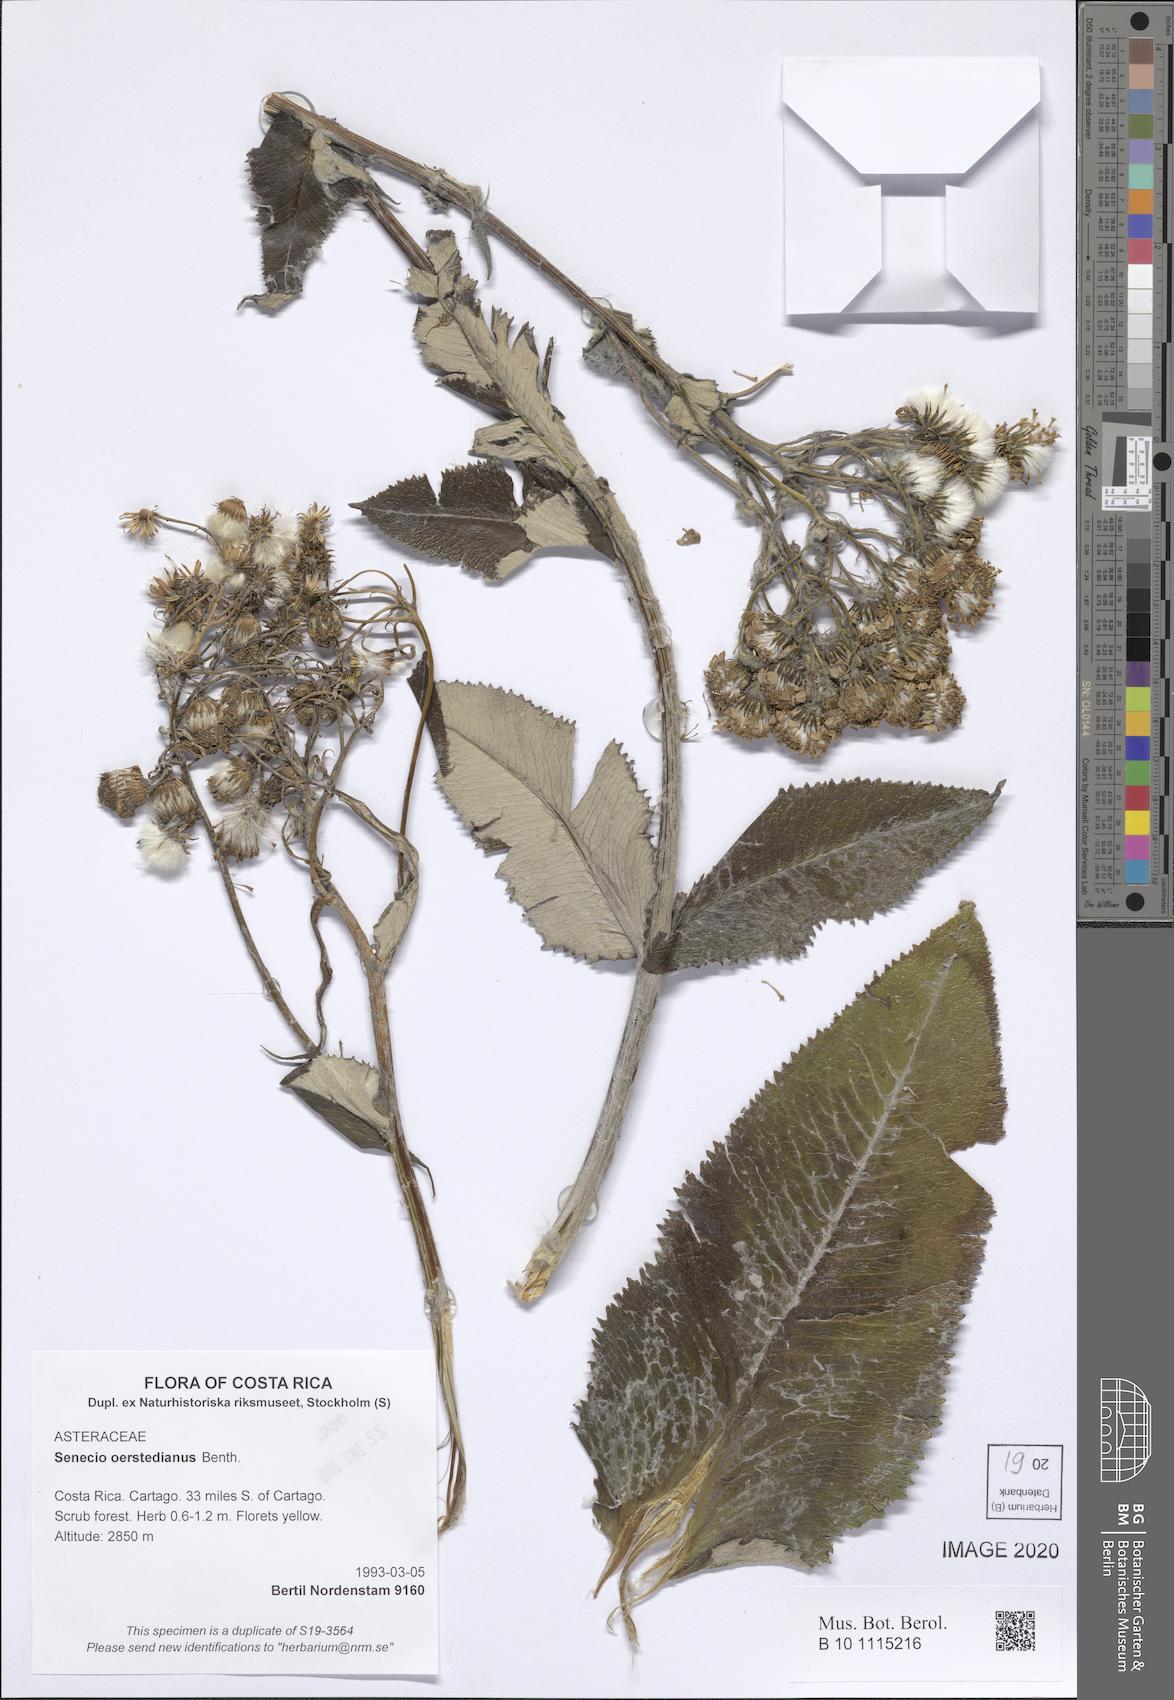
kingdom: Plantae
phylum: Tracheophyta
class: Magnoliopsida
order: Asterales
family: Asteraceae
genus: Senecio
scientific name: Senecio oerstedianus
